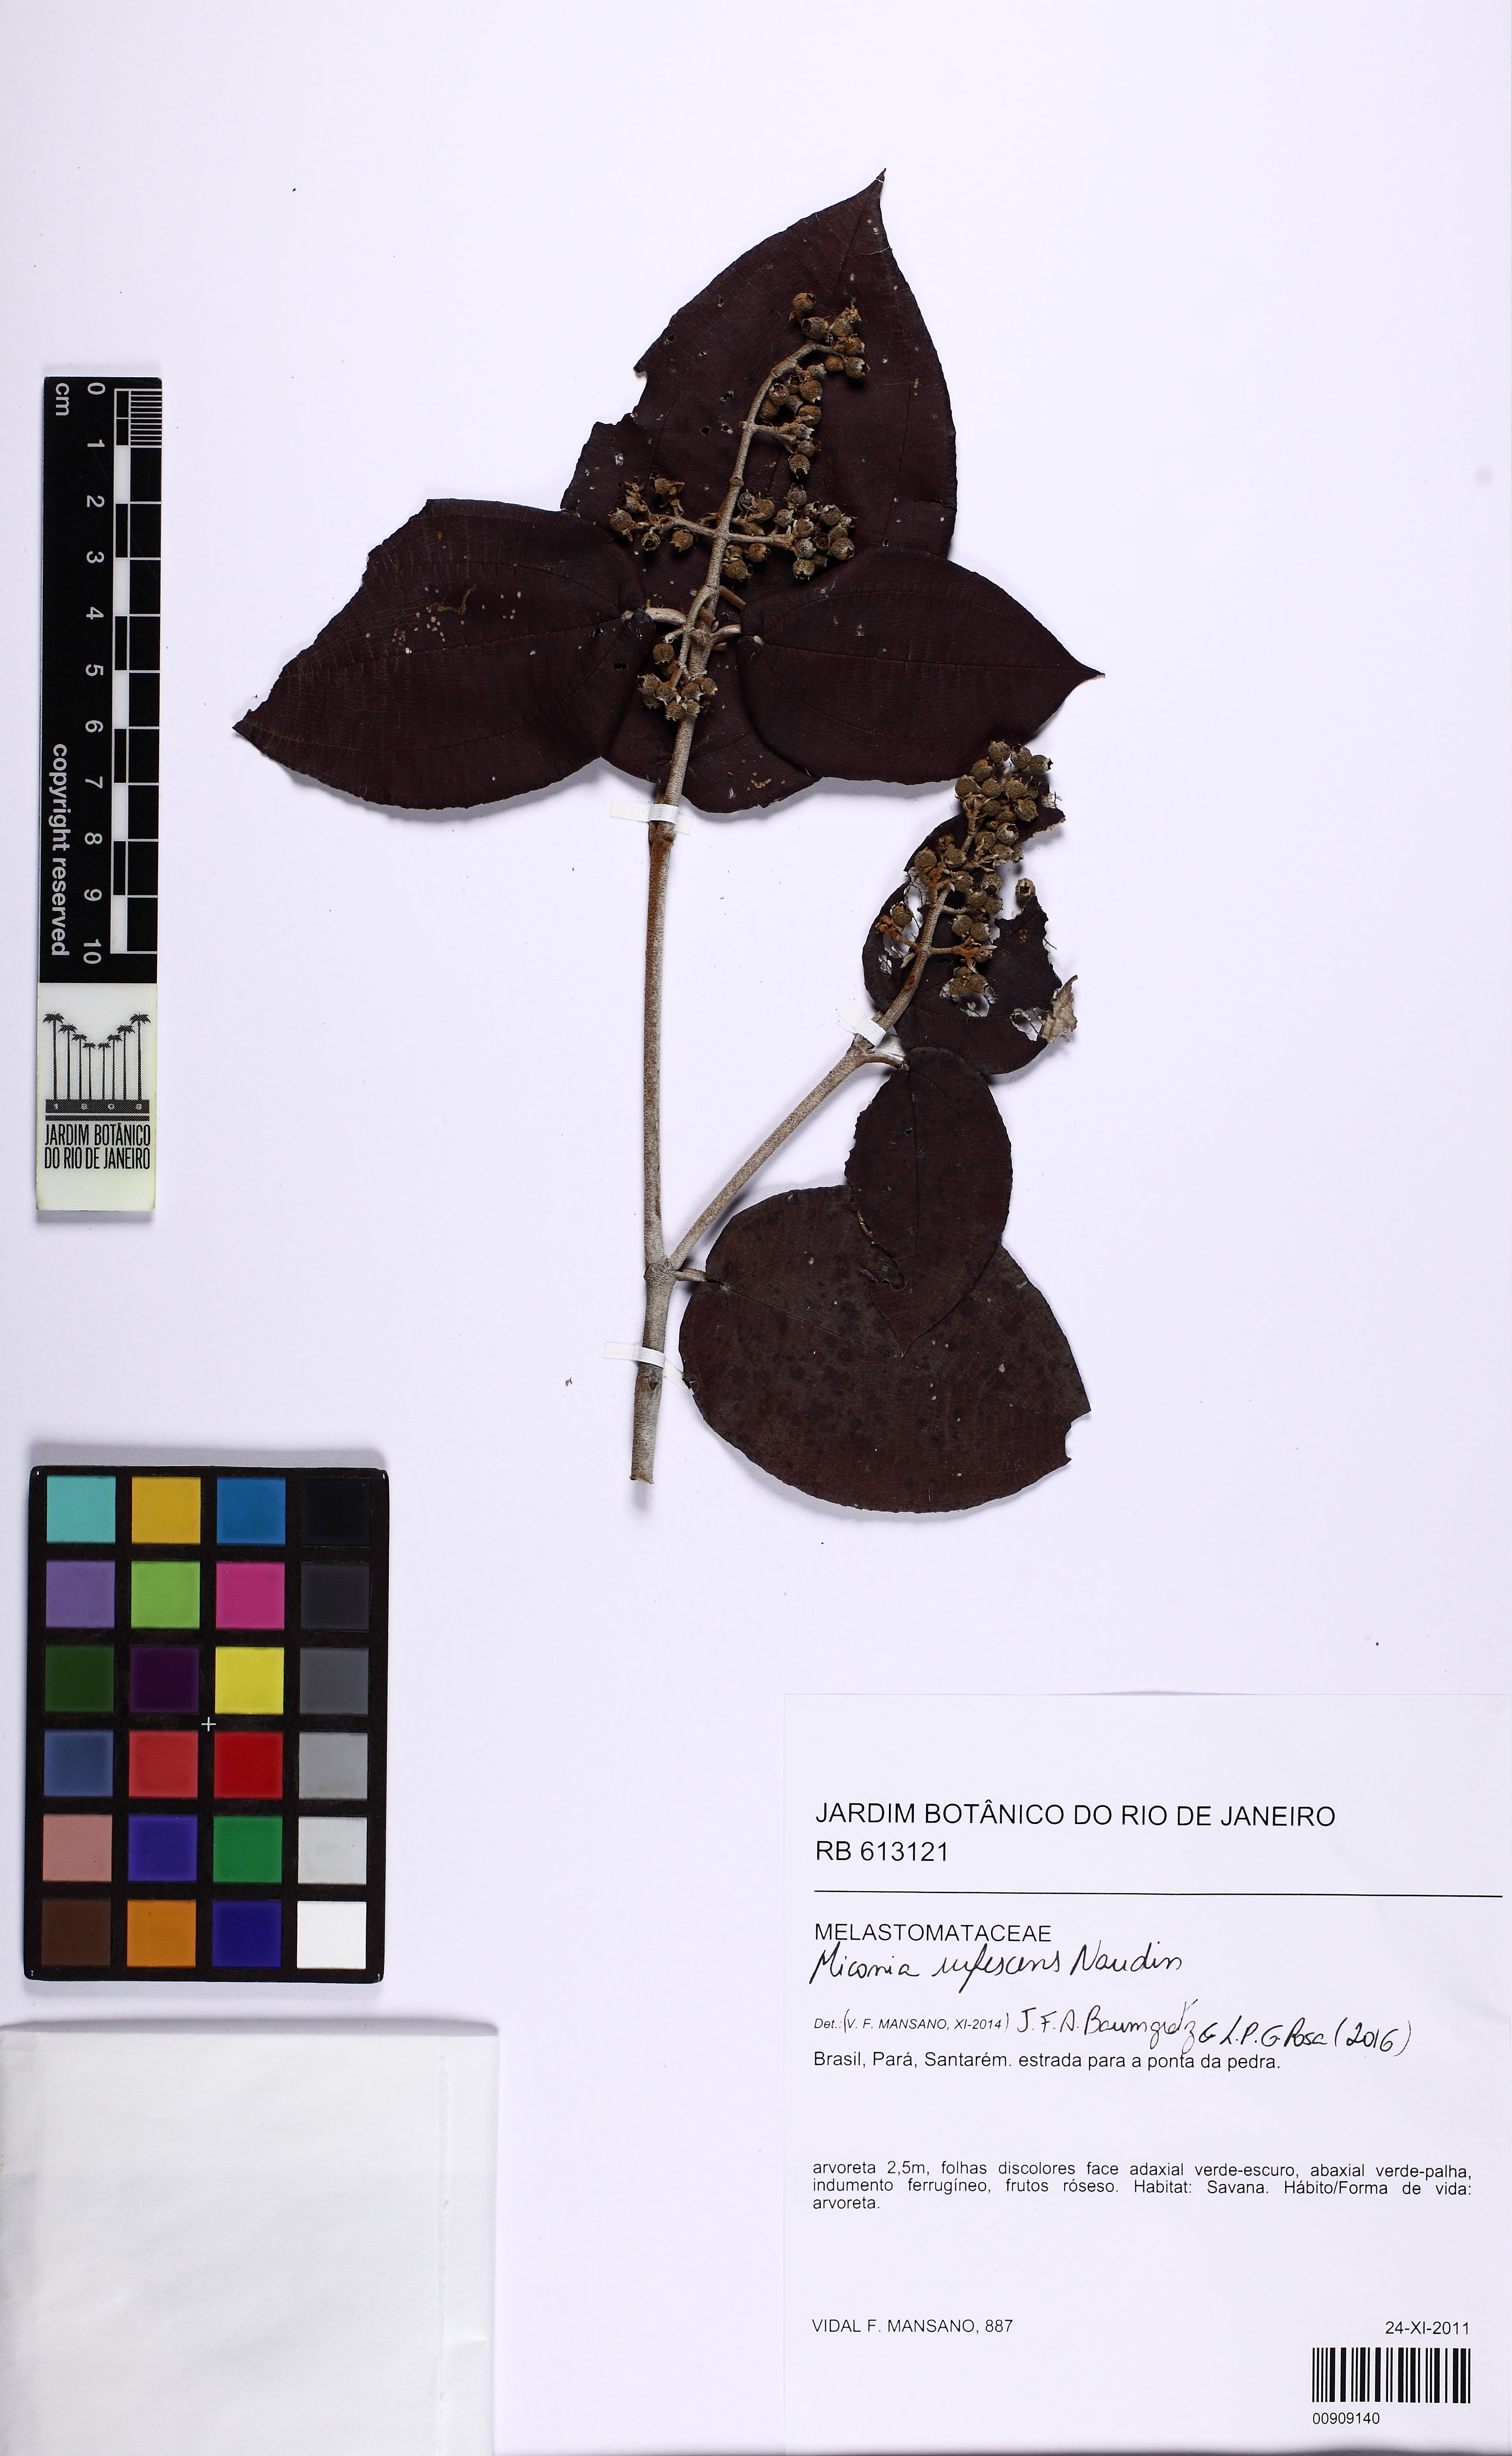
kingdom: Plantae
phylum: Tracheophyta
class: Magnoliopsida
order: Myrtales
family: Melastomataceae
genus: Miconia
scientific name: Miconia rufescens
